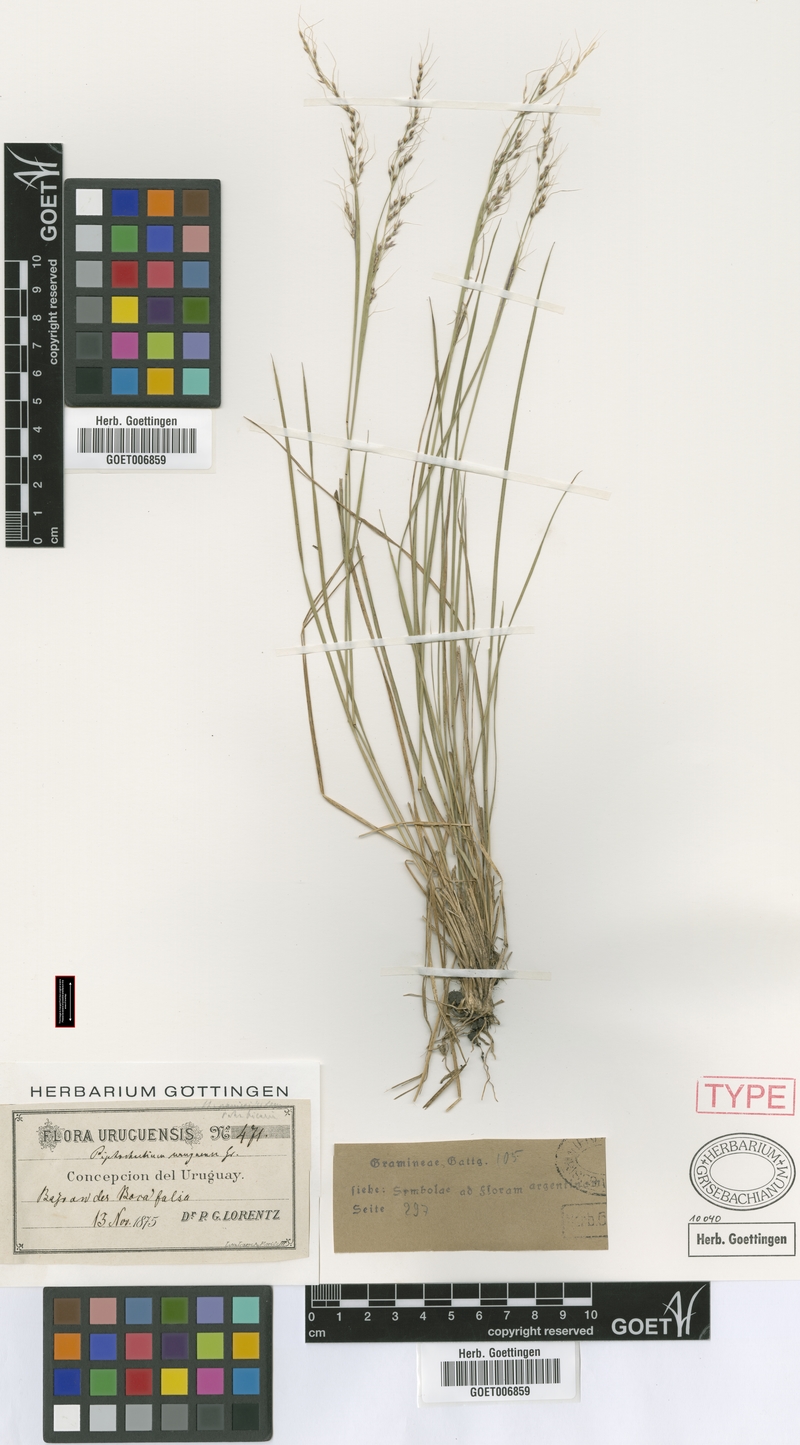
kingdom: Plantae
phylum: Tracheophyta
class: Liliopsida
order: Poales
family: Poaceae
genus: Piptochaetium
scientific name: Piptochaetium uruguense
